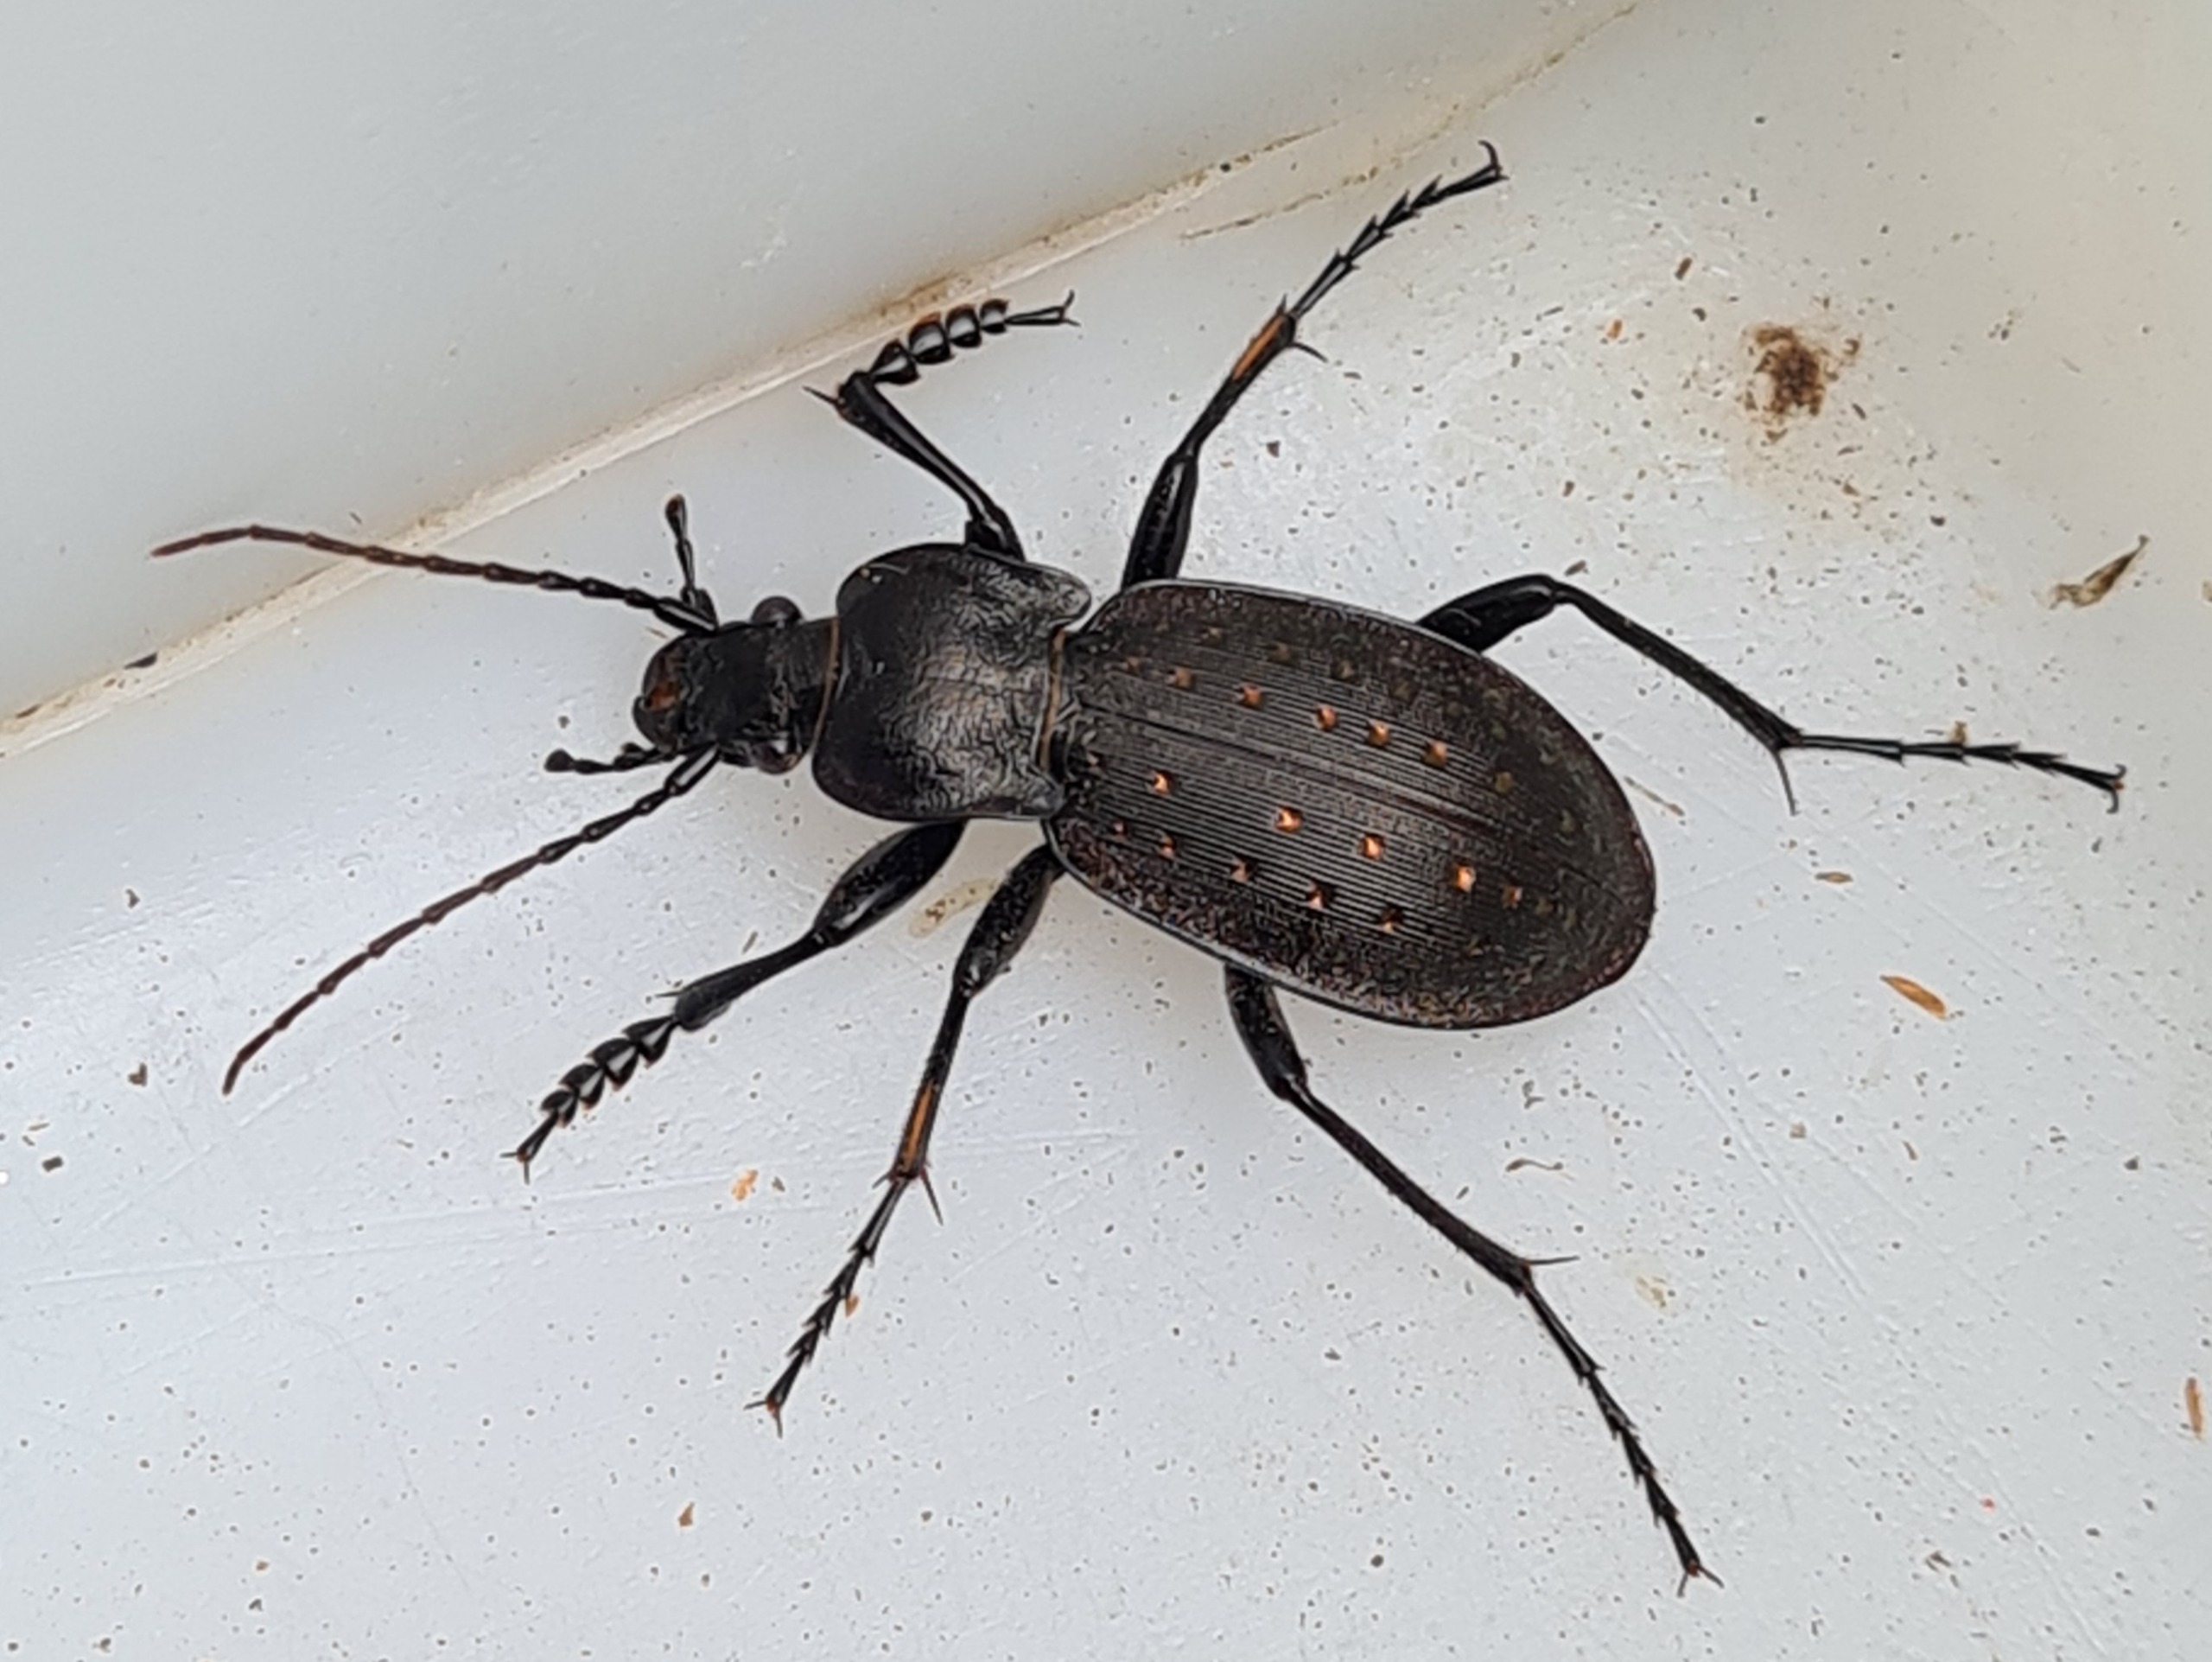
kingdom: Animalia
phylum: Arthropoda
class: Insecta
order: Coleoptera
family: Carabidae
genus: Carabus
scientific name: Carabus hortensis
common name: Guldpletløber
